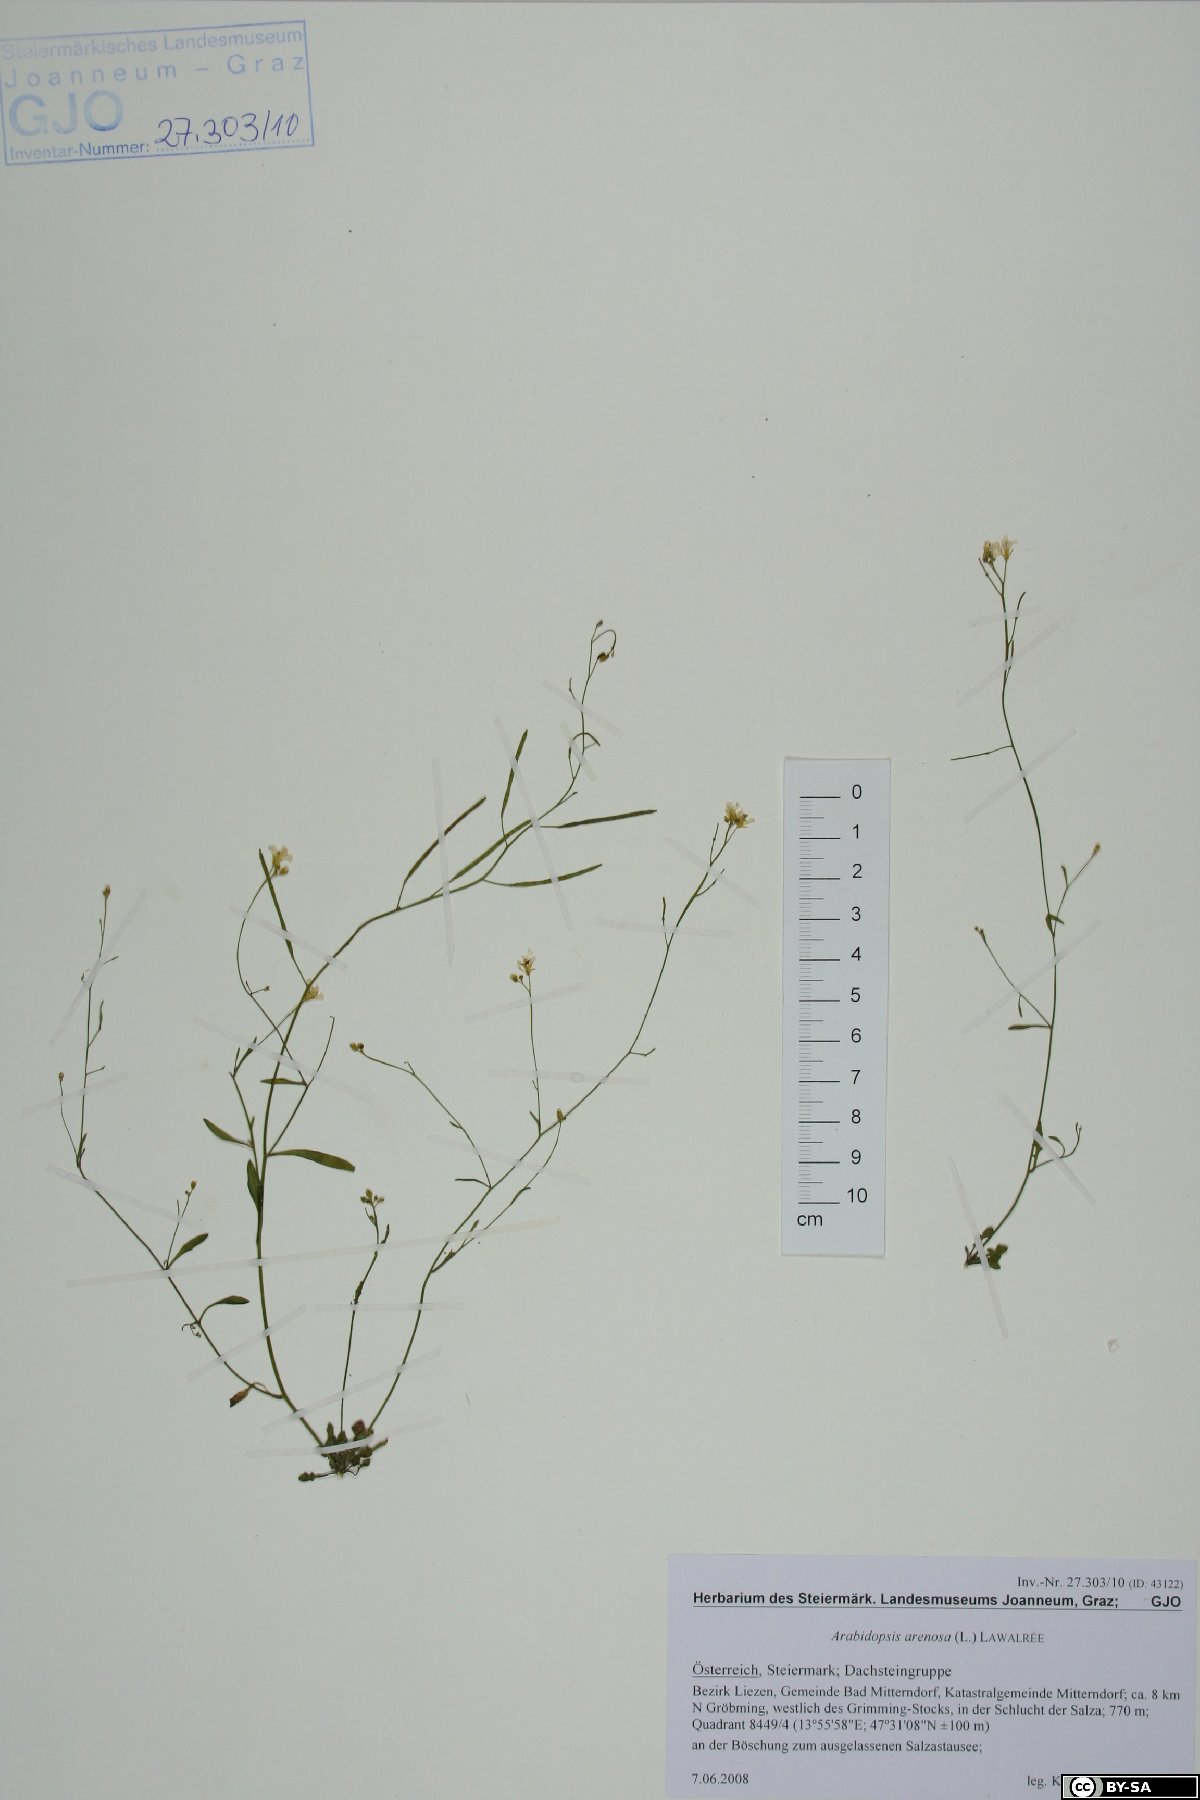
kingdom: Plantae
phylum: Tracheophyta
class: Magnoliopsida
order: Brassicales
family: Brassicaceae
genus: Arabidopsis
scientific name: Arabidopsis arenosa
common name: Sand rock-cress
